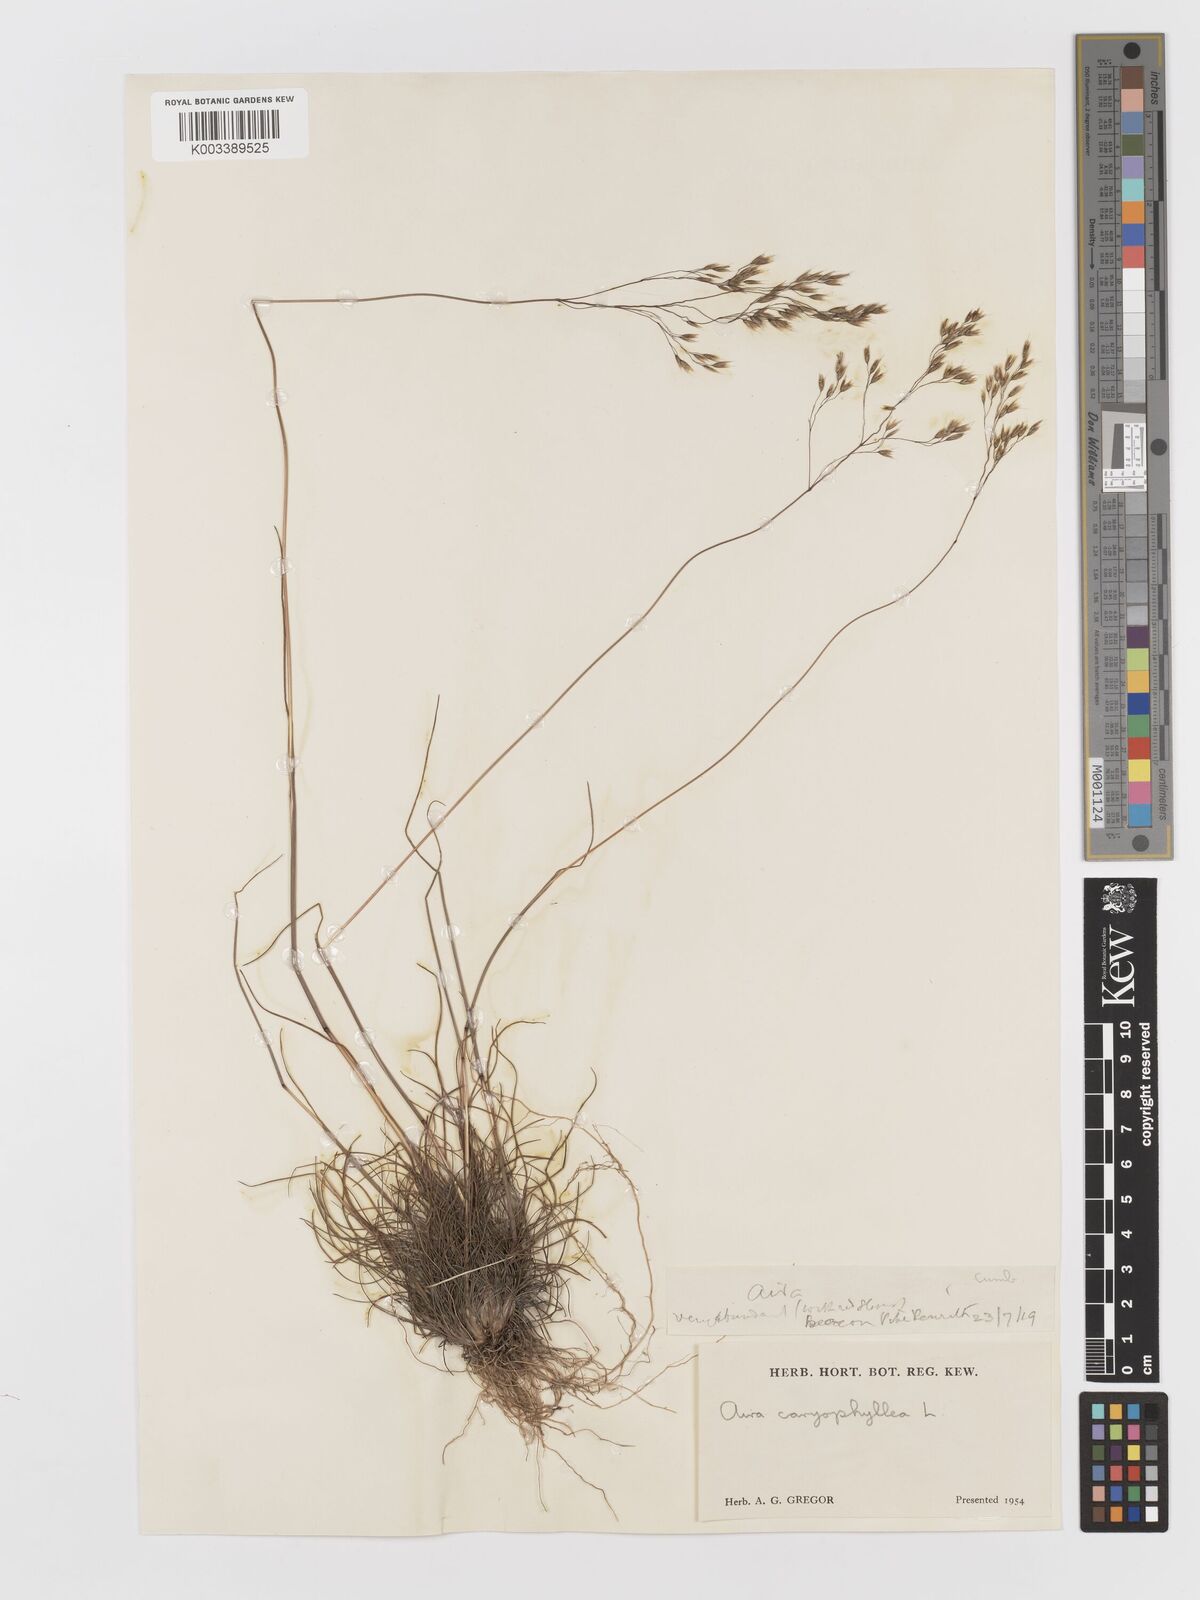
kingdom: Plantae
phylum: Tracheophyta
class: Liliopsida
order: Poales
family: Poaceae
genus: Aira
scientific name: Aira caryophyllea
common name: Silver hairgrass
